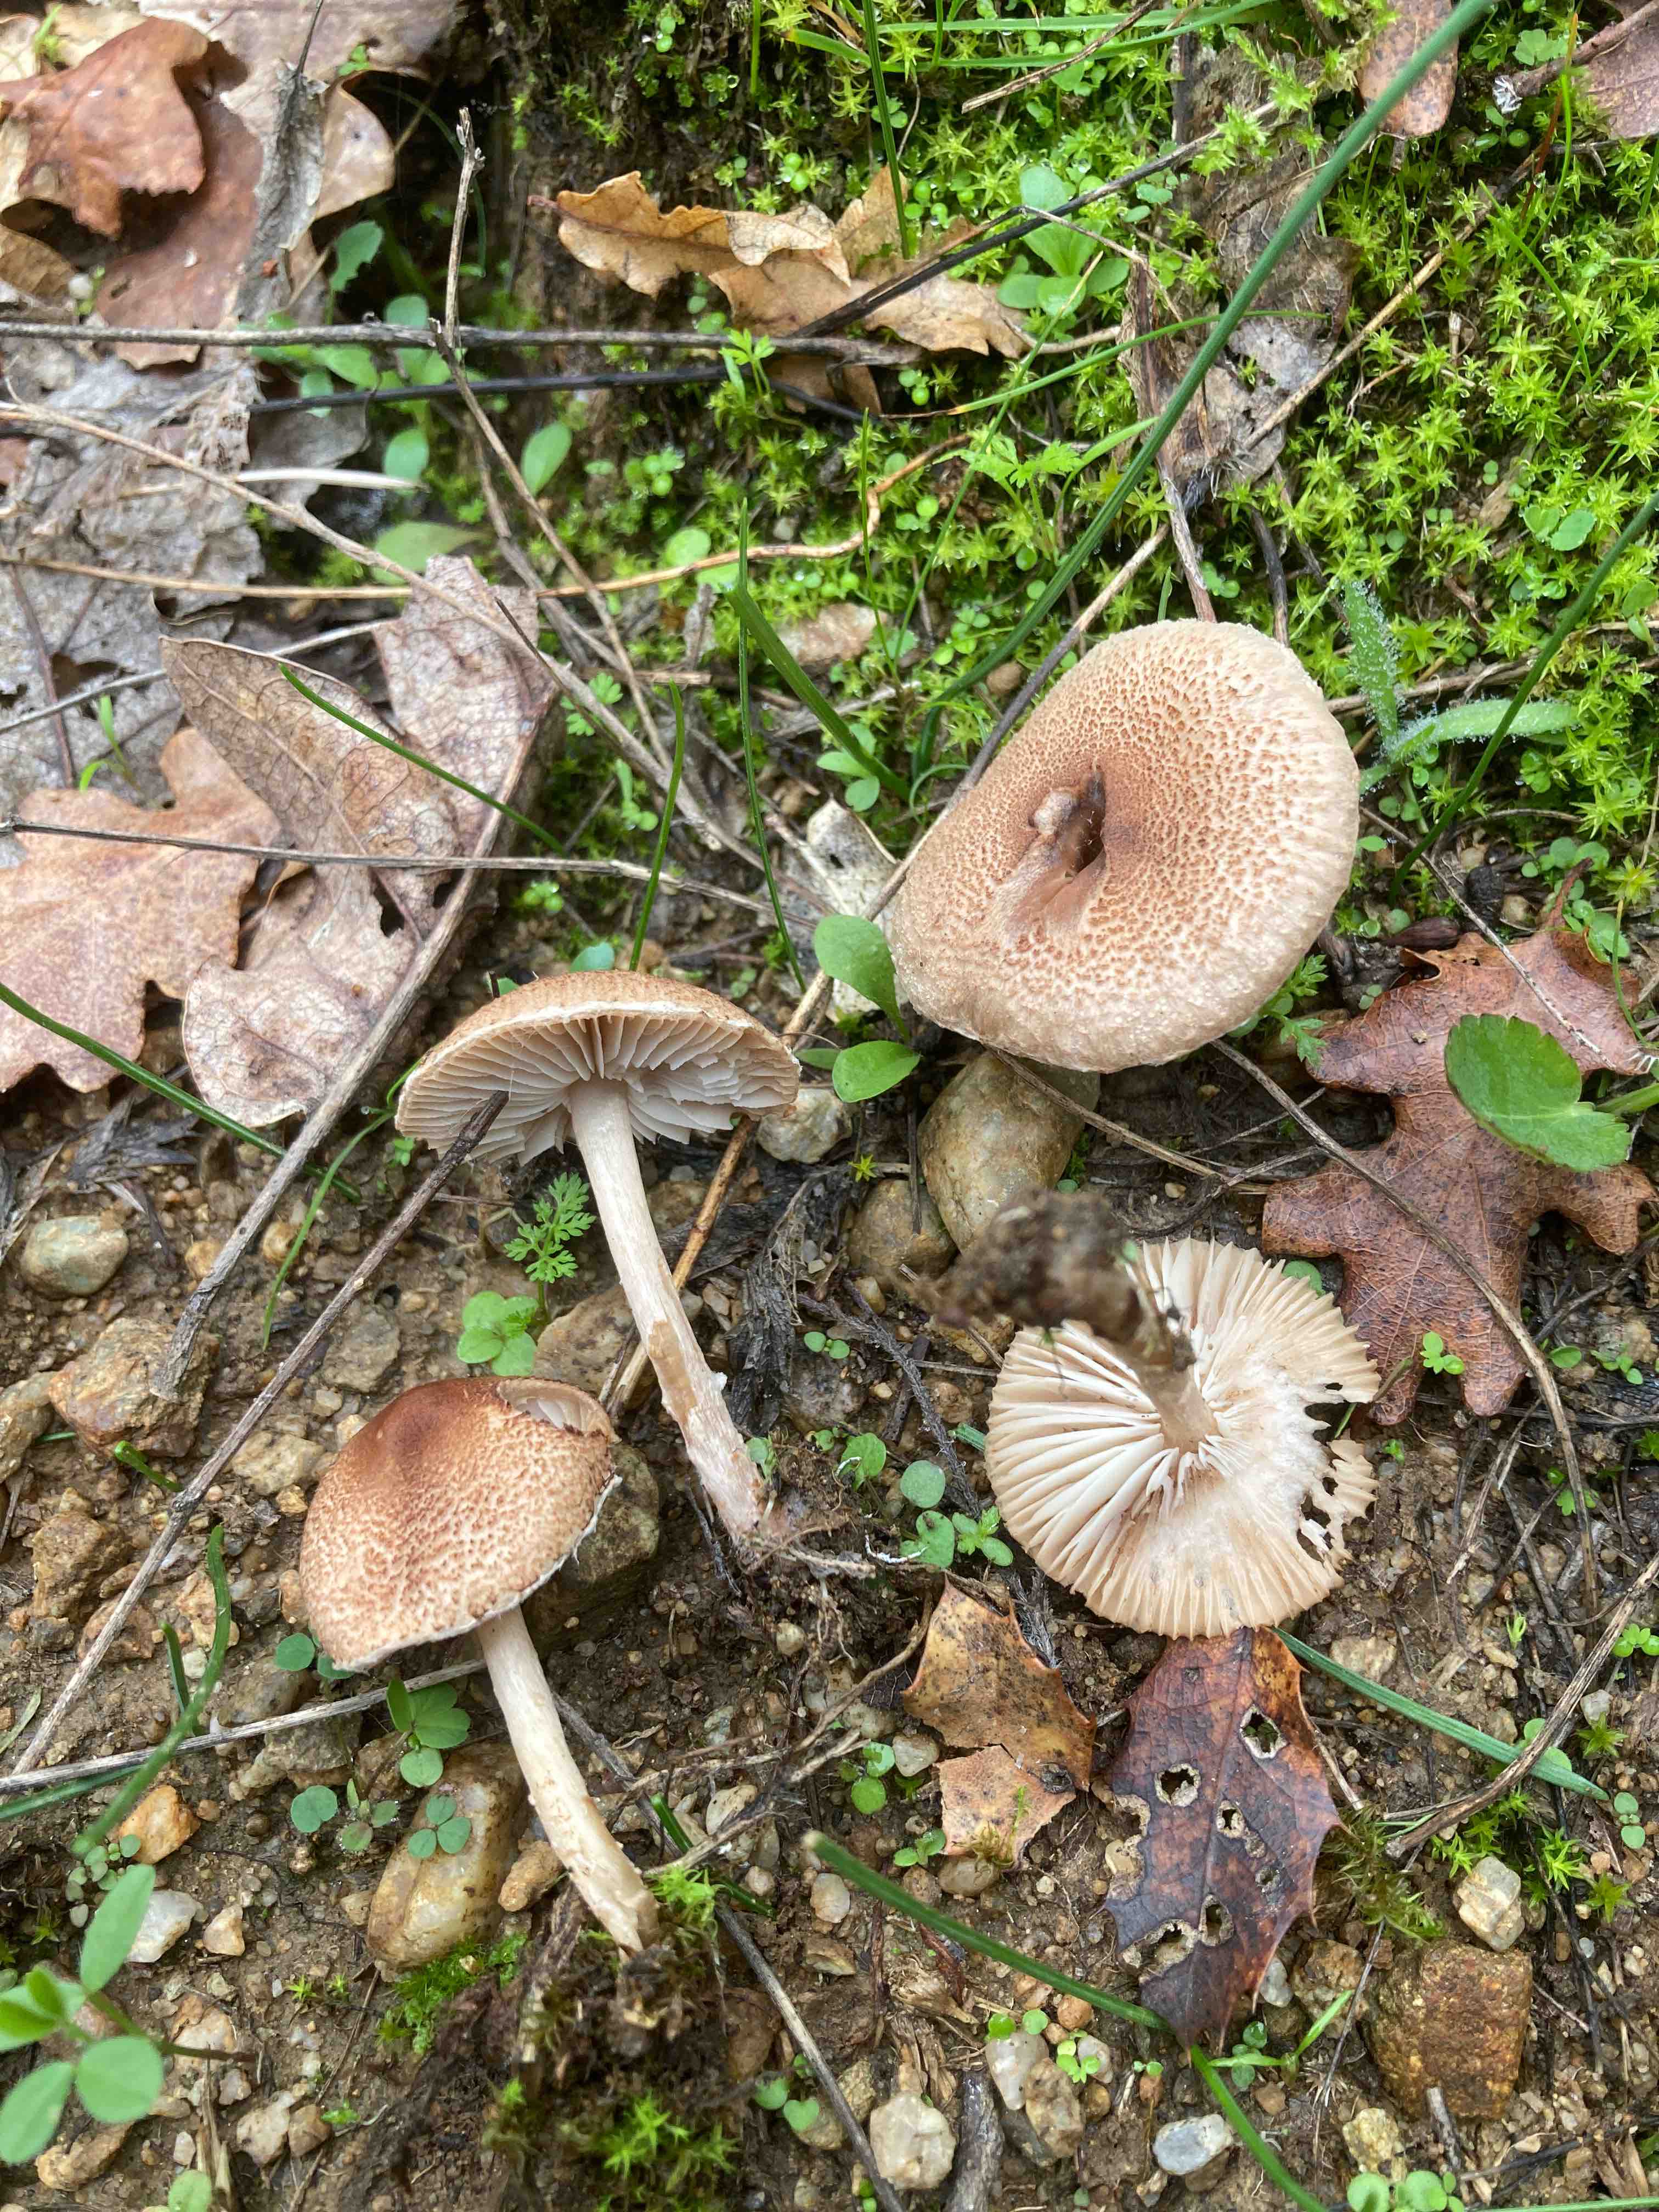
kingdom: Fungi
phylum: Basidiomycota
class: Agaricomycetes
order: Agaricales
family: Agaricaceae
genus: Lepiota
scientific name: Lepiota
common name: parasolhat
